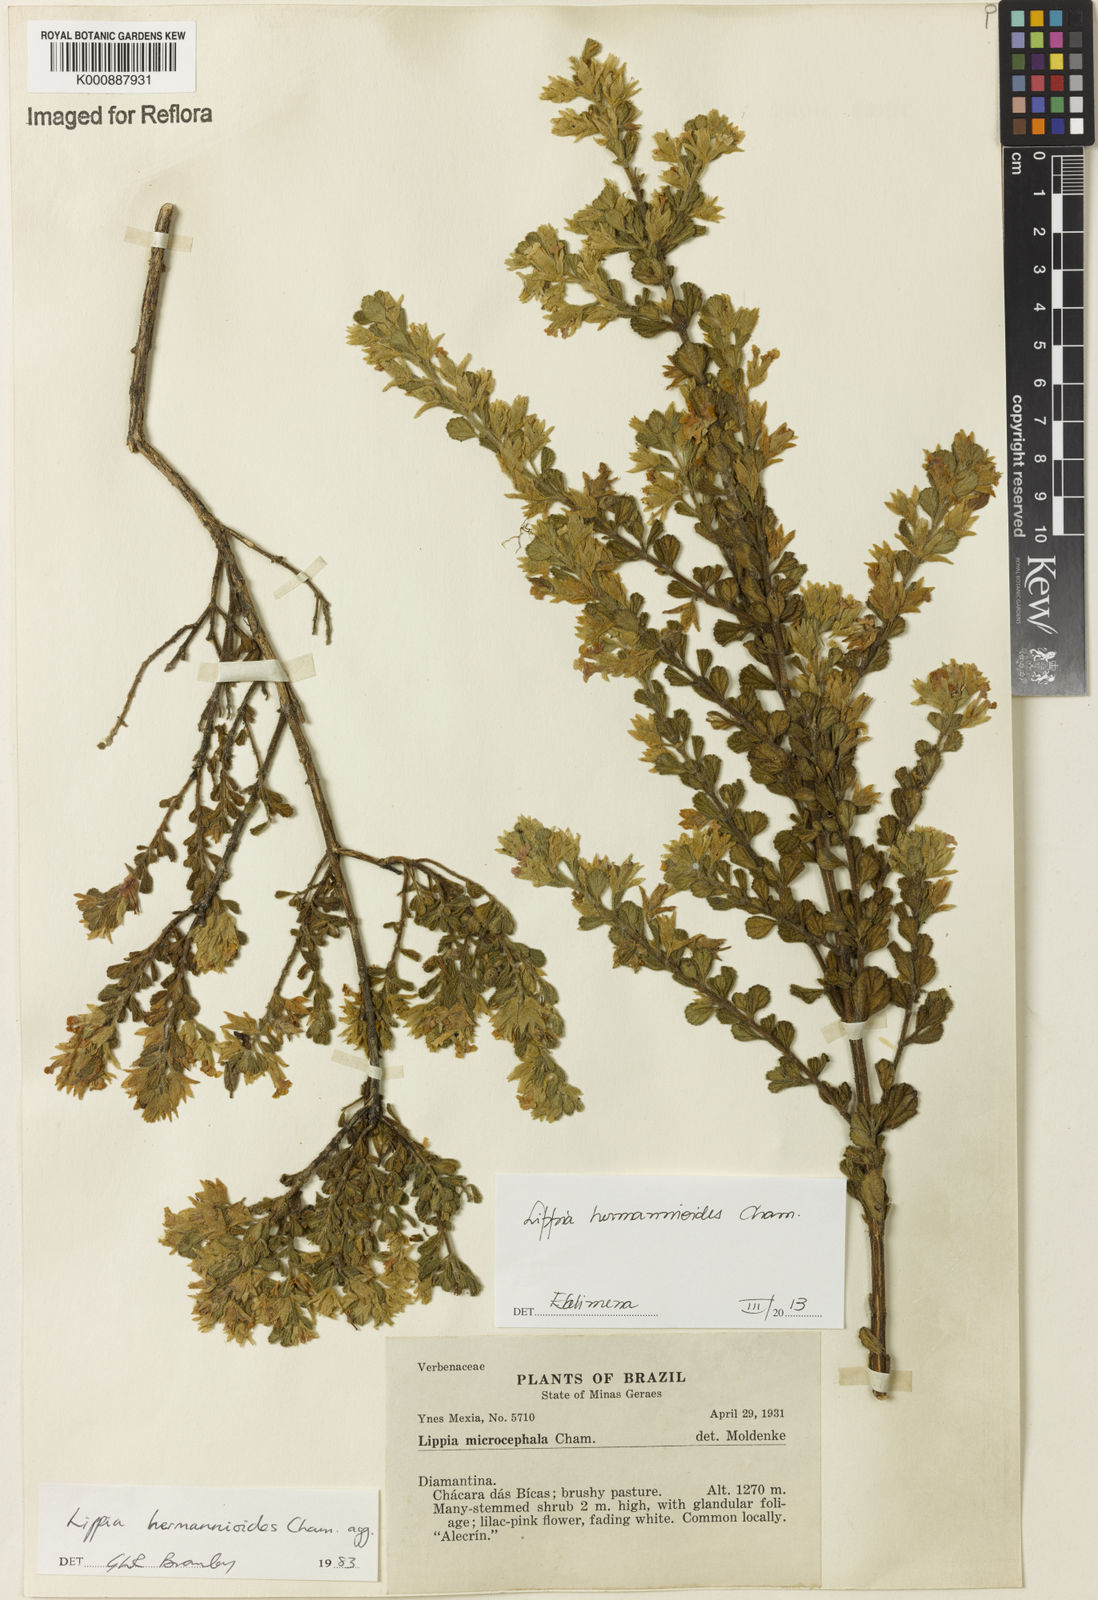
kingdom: Plantae
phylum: Tracheophyta
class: Magnoliopsida
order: Lamiales
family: Verbenaceae
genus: Lippia
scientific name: Lippia hermannioides
